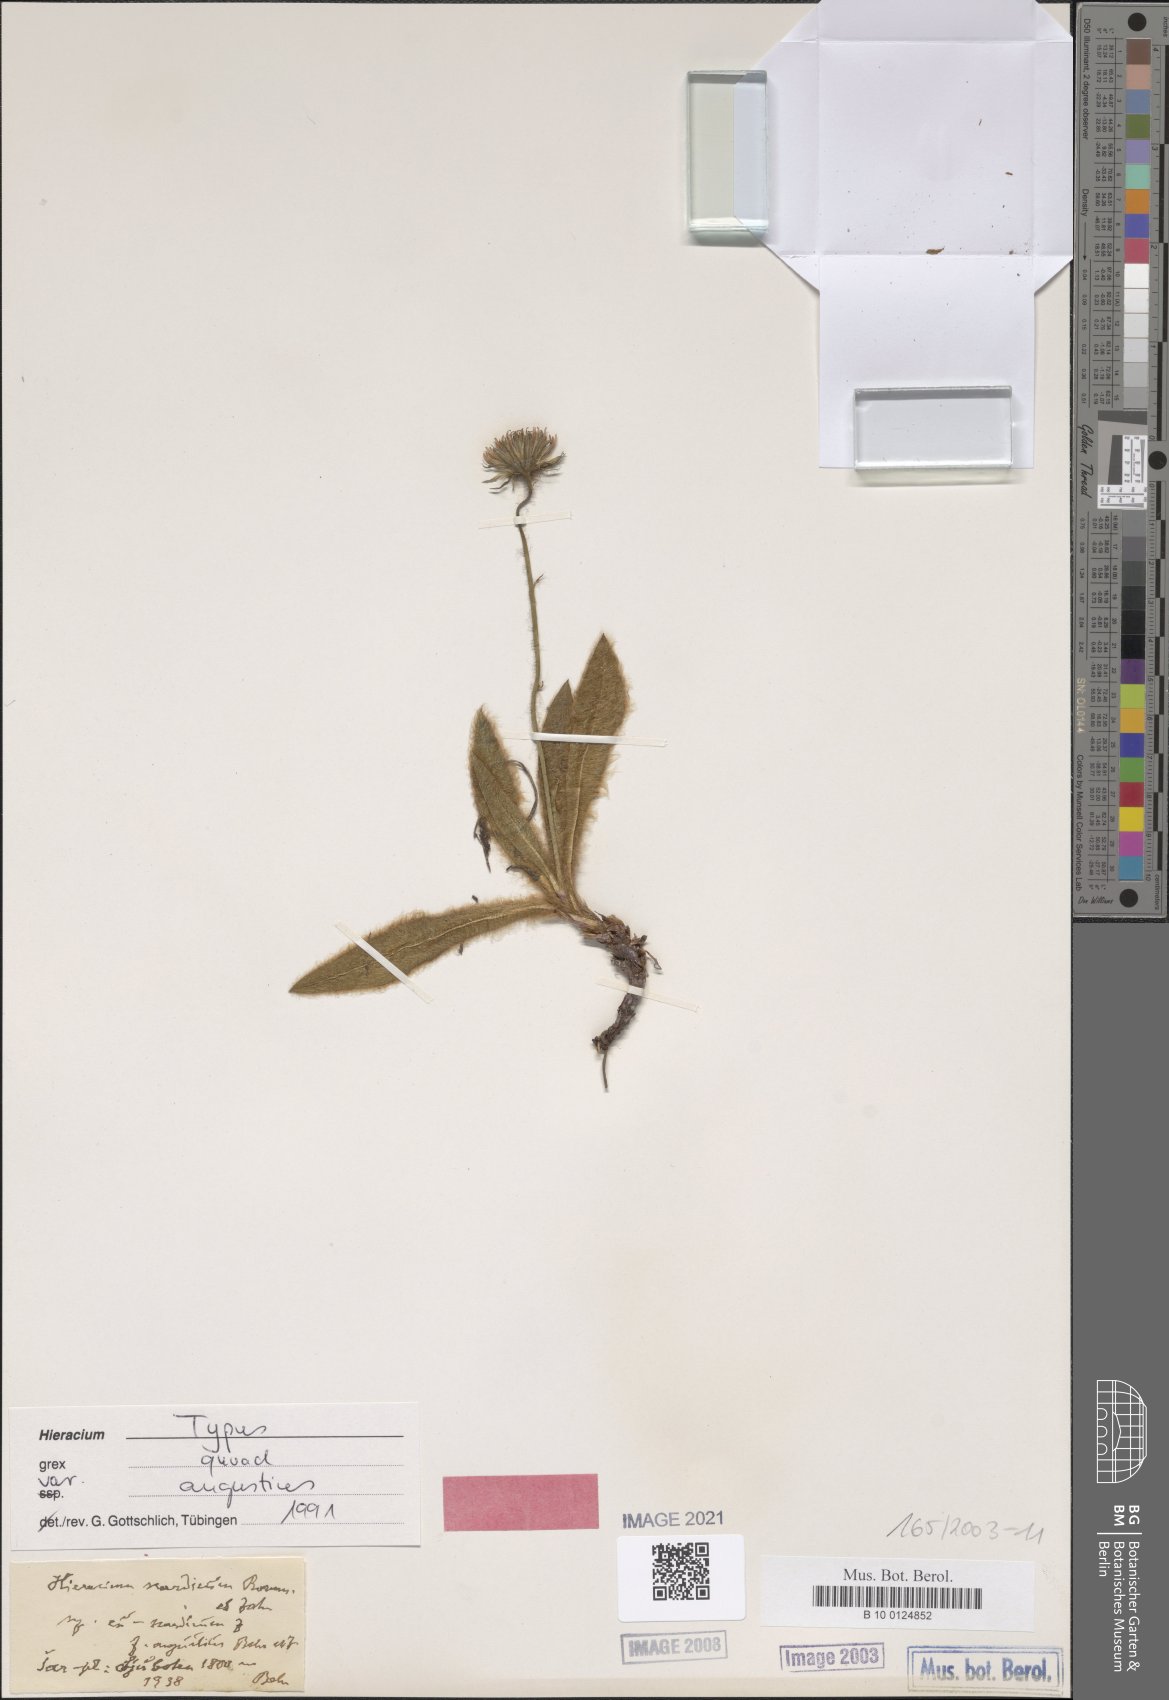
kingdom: Plantae
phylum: Tracheophyta
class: Magnoliopsida
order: Asterales
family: Asteraceae
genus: Hieracium
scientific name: Hieracium scardicum
